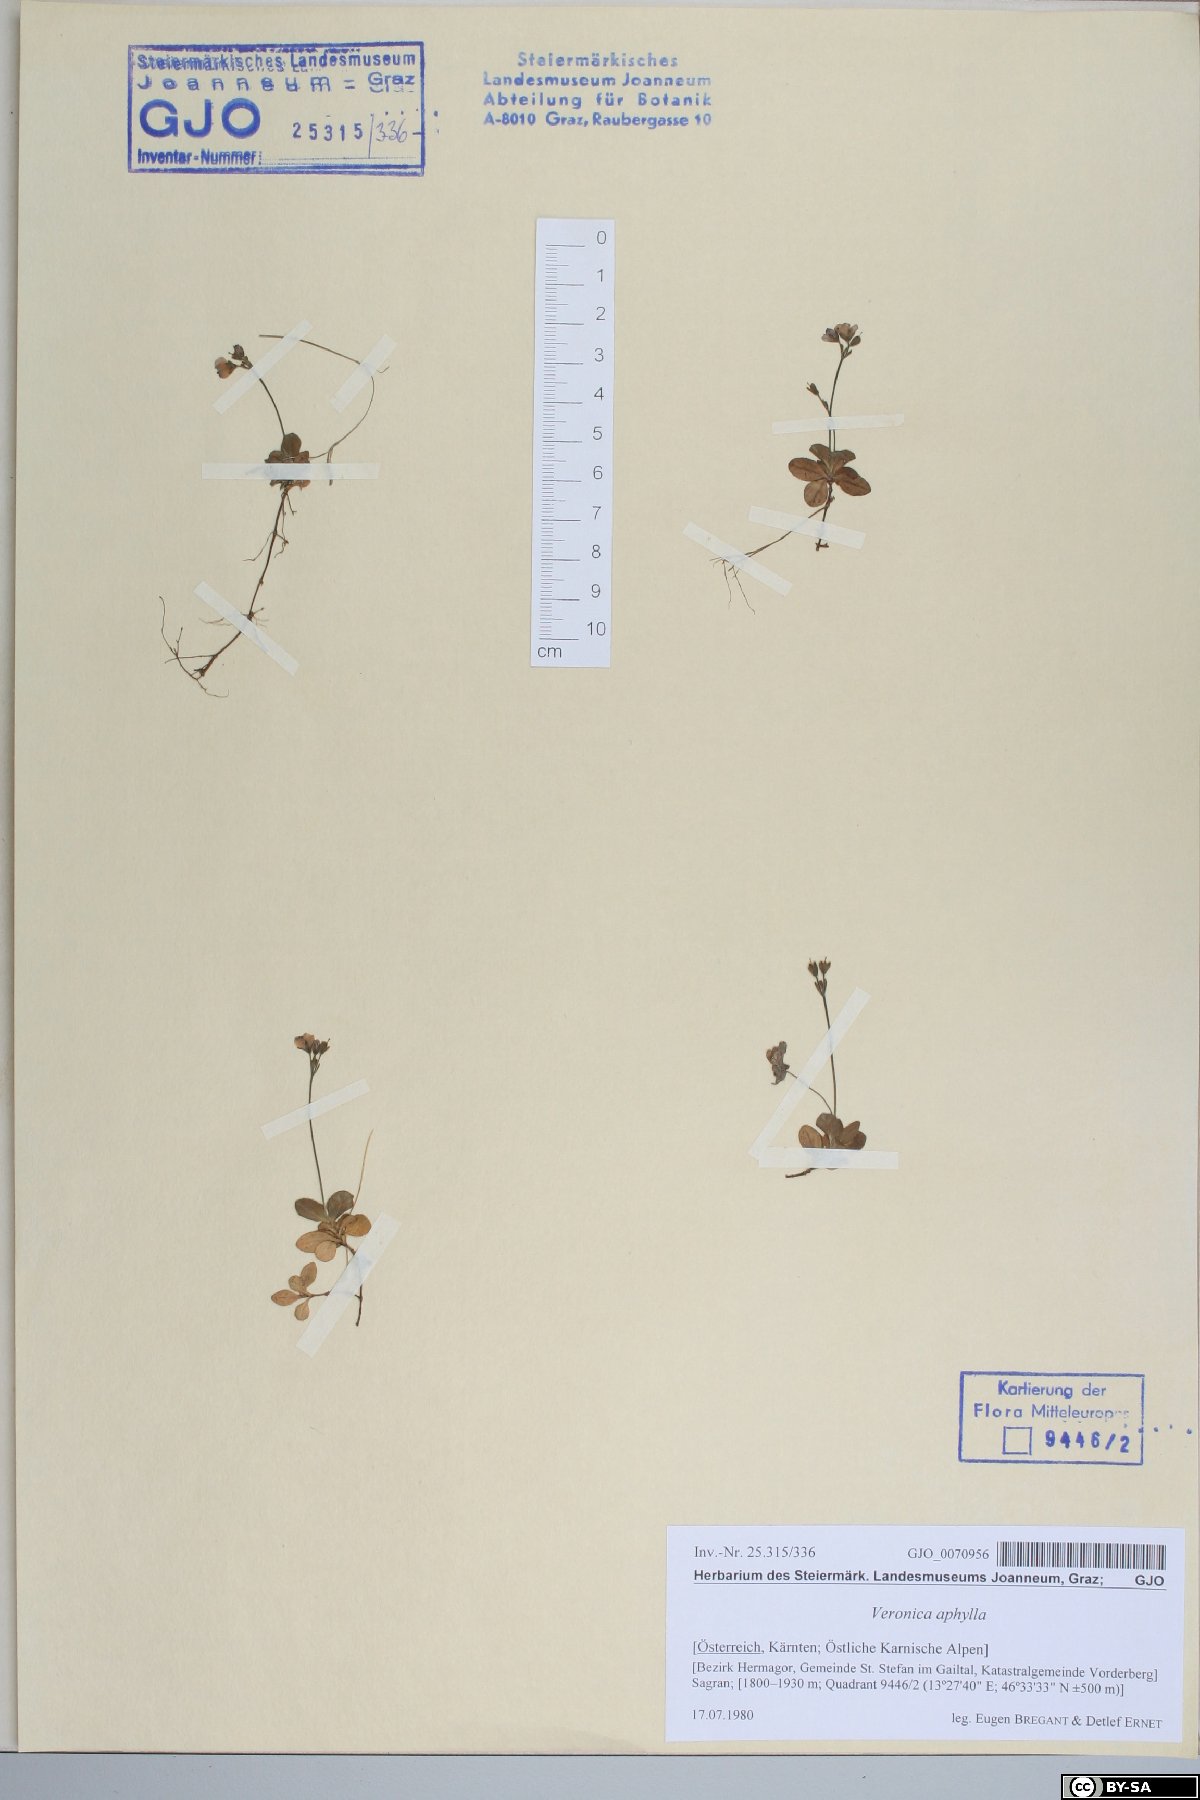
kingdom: Plantae
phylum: Tracheophyta
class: Magnoliopsida
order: Lamiales
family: Plantaginaceae
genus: Veronica
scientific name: Veronica aphylla
